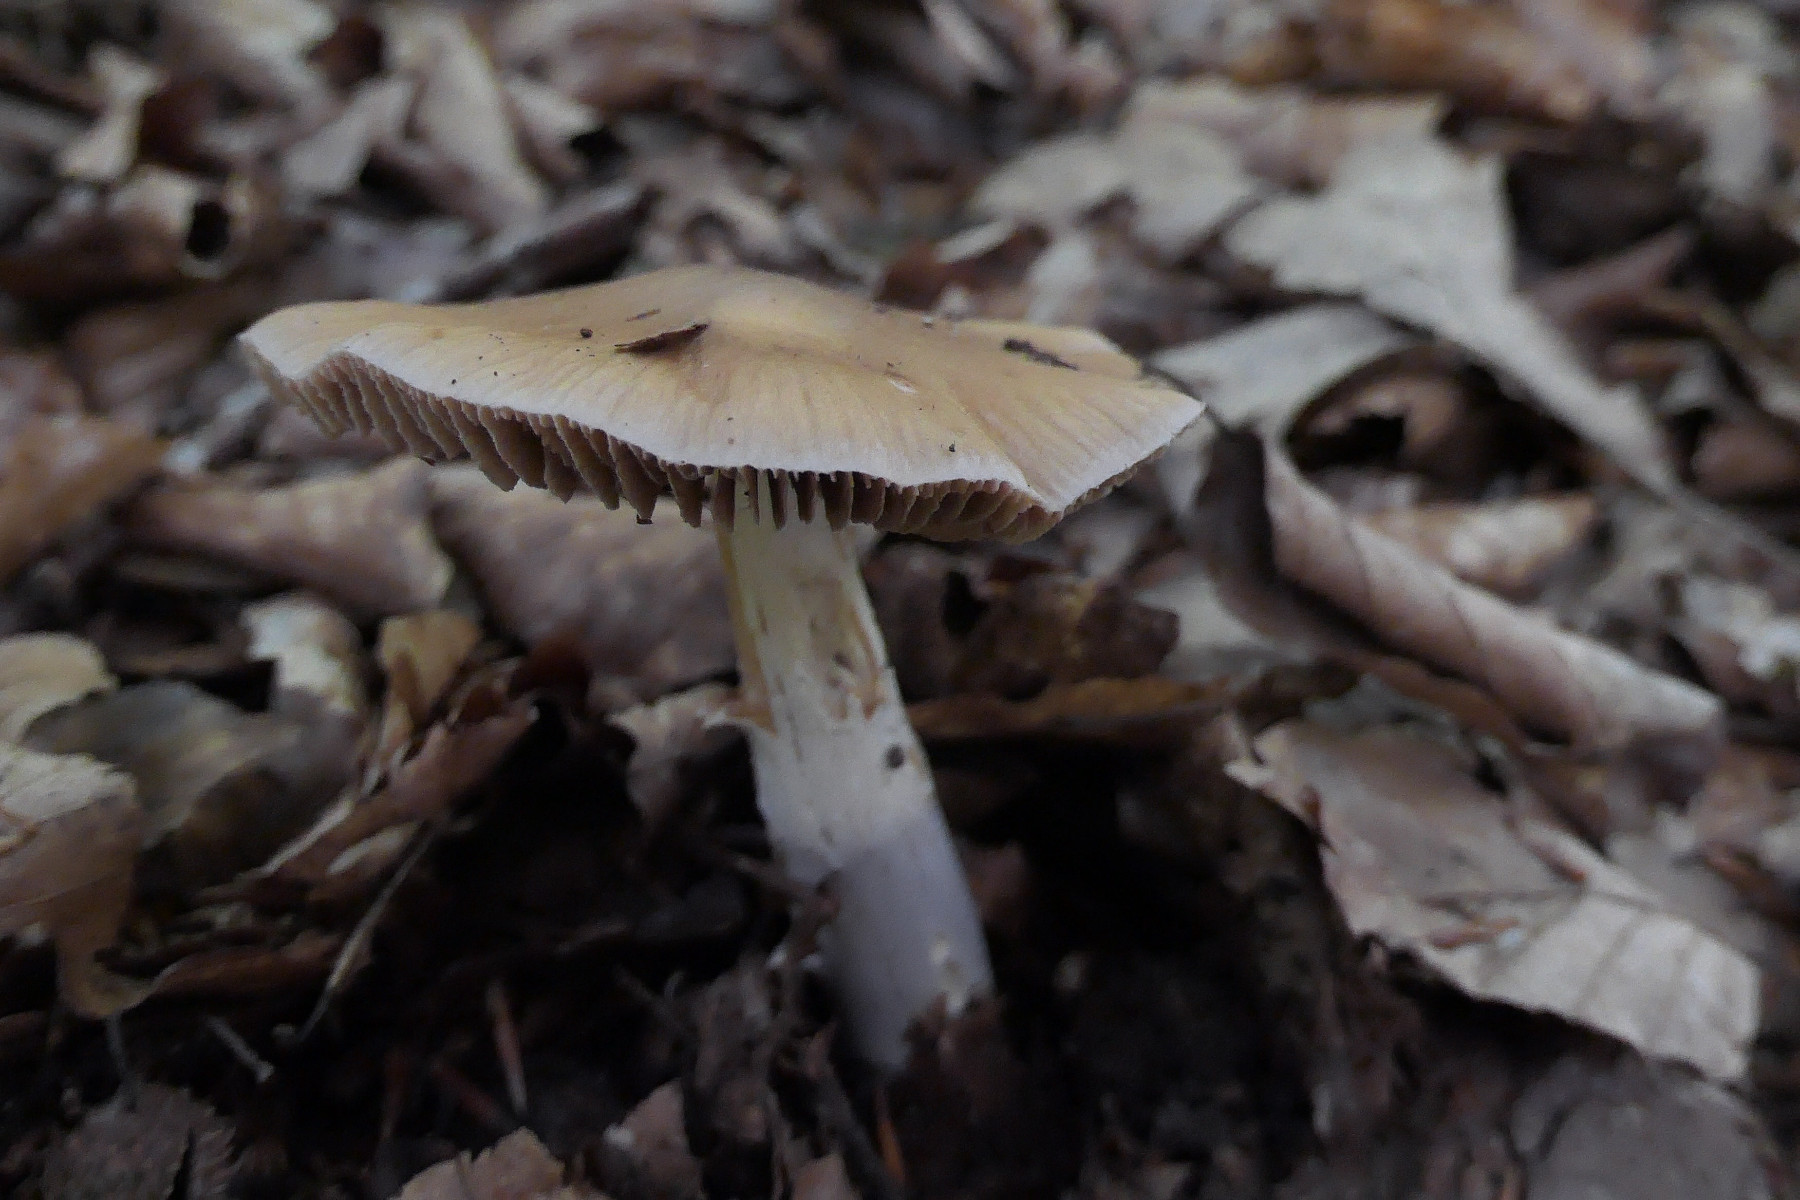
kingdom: Fungi
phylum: Basidiomycota
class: Agaricomycetes
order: Agaricales
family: Cortinariaceae
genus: Cortinarius
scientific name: Cortinarius elatior
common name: høj slørhat
